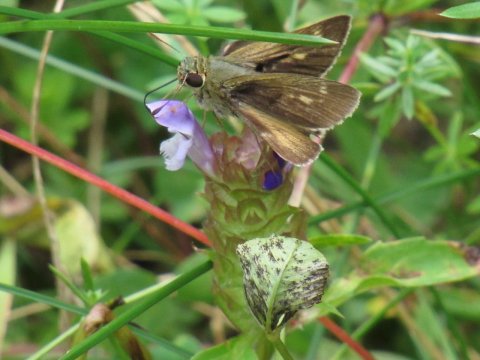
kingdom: Animalia
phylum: Arthropoda
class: Insecta
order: Lepidoptera
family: Hesperiidae
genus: Polites
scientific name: Polites themistocles
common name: Tawny-edged Skipper
